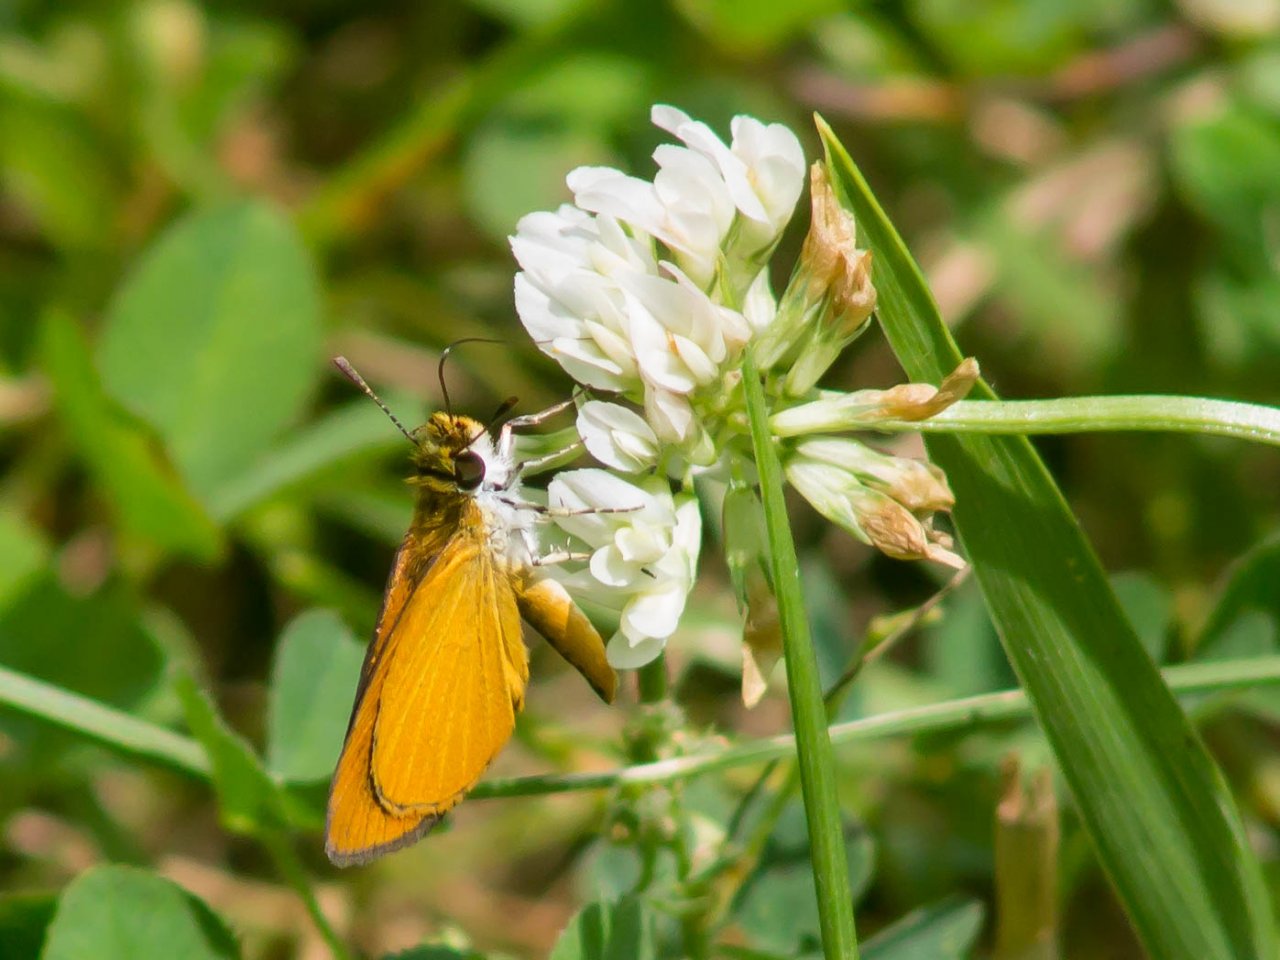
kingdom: Animalia
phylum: Arthropoda
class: Insecta
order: Lepidoptera
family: Hesperiidae
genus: Ancyloxypha
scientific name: Ancyloxypha numitor
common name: Least Skipper
